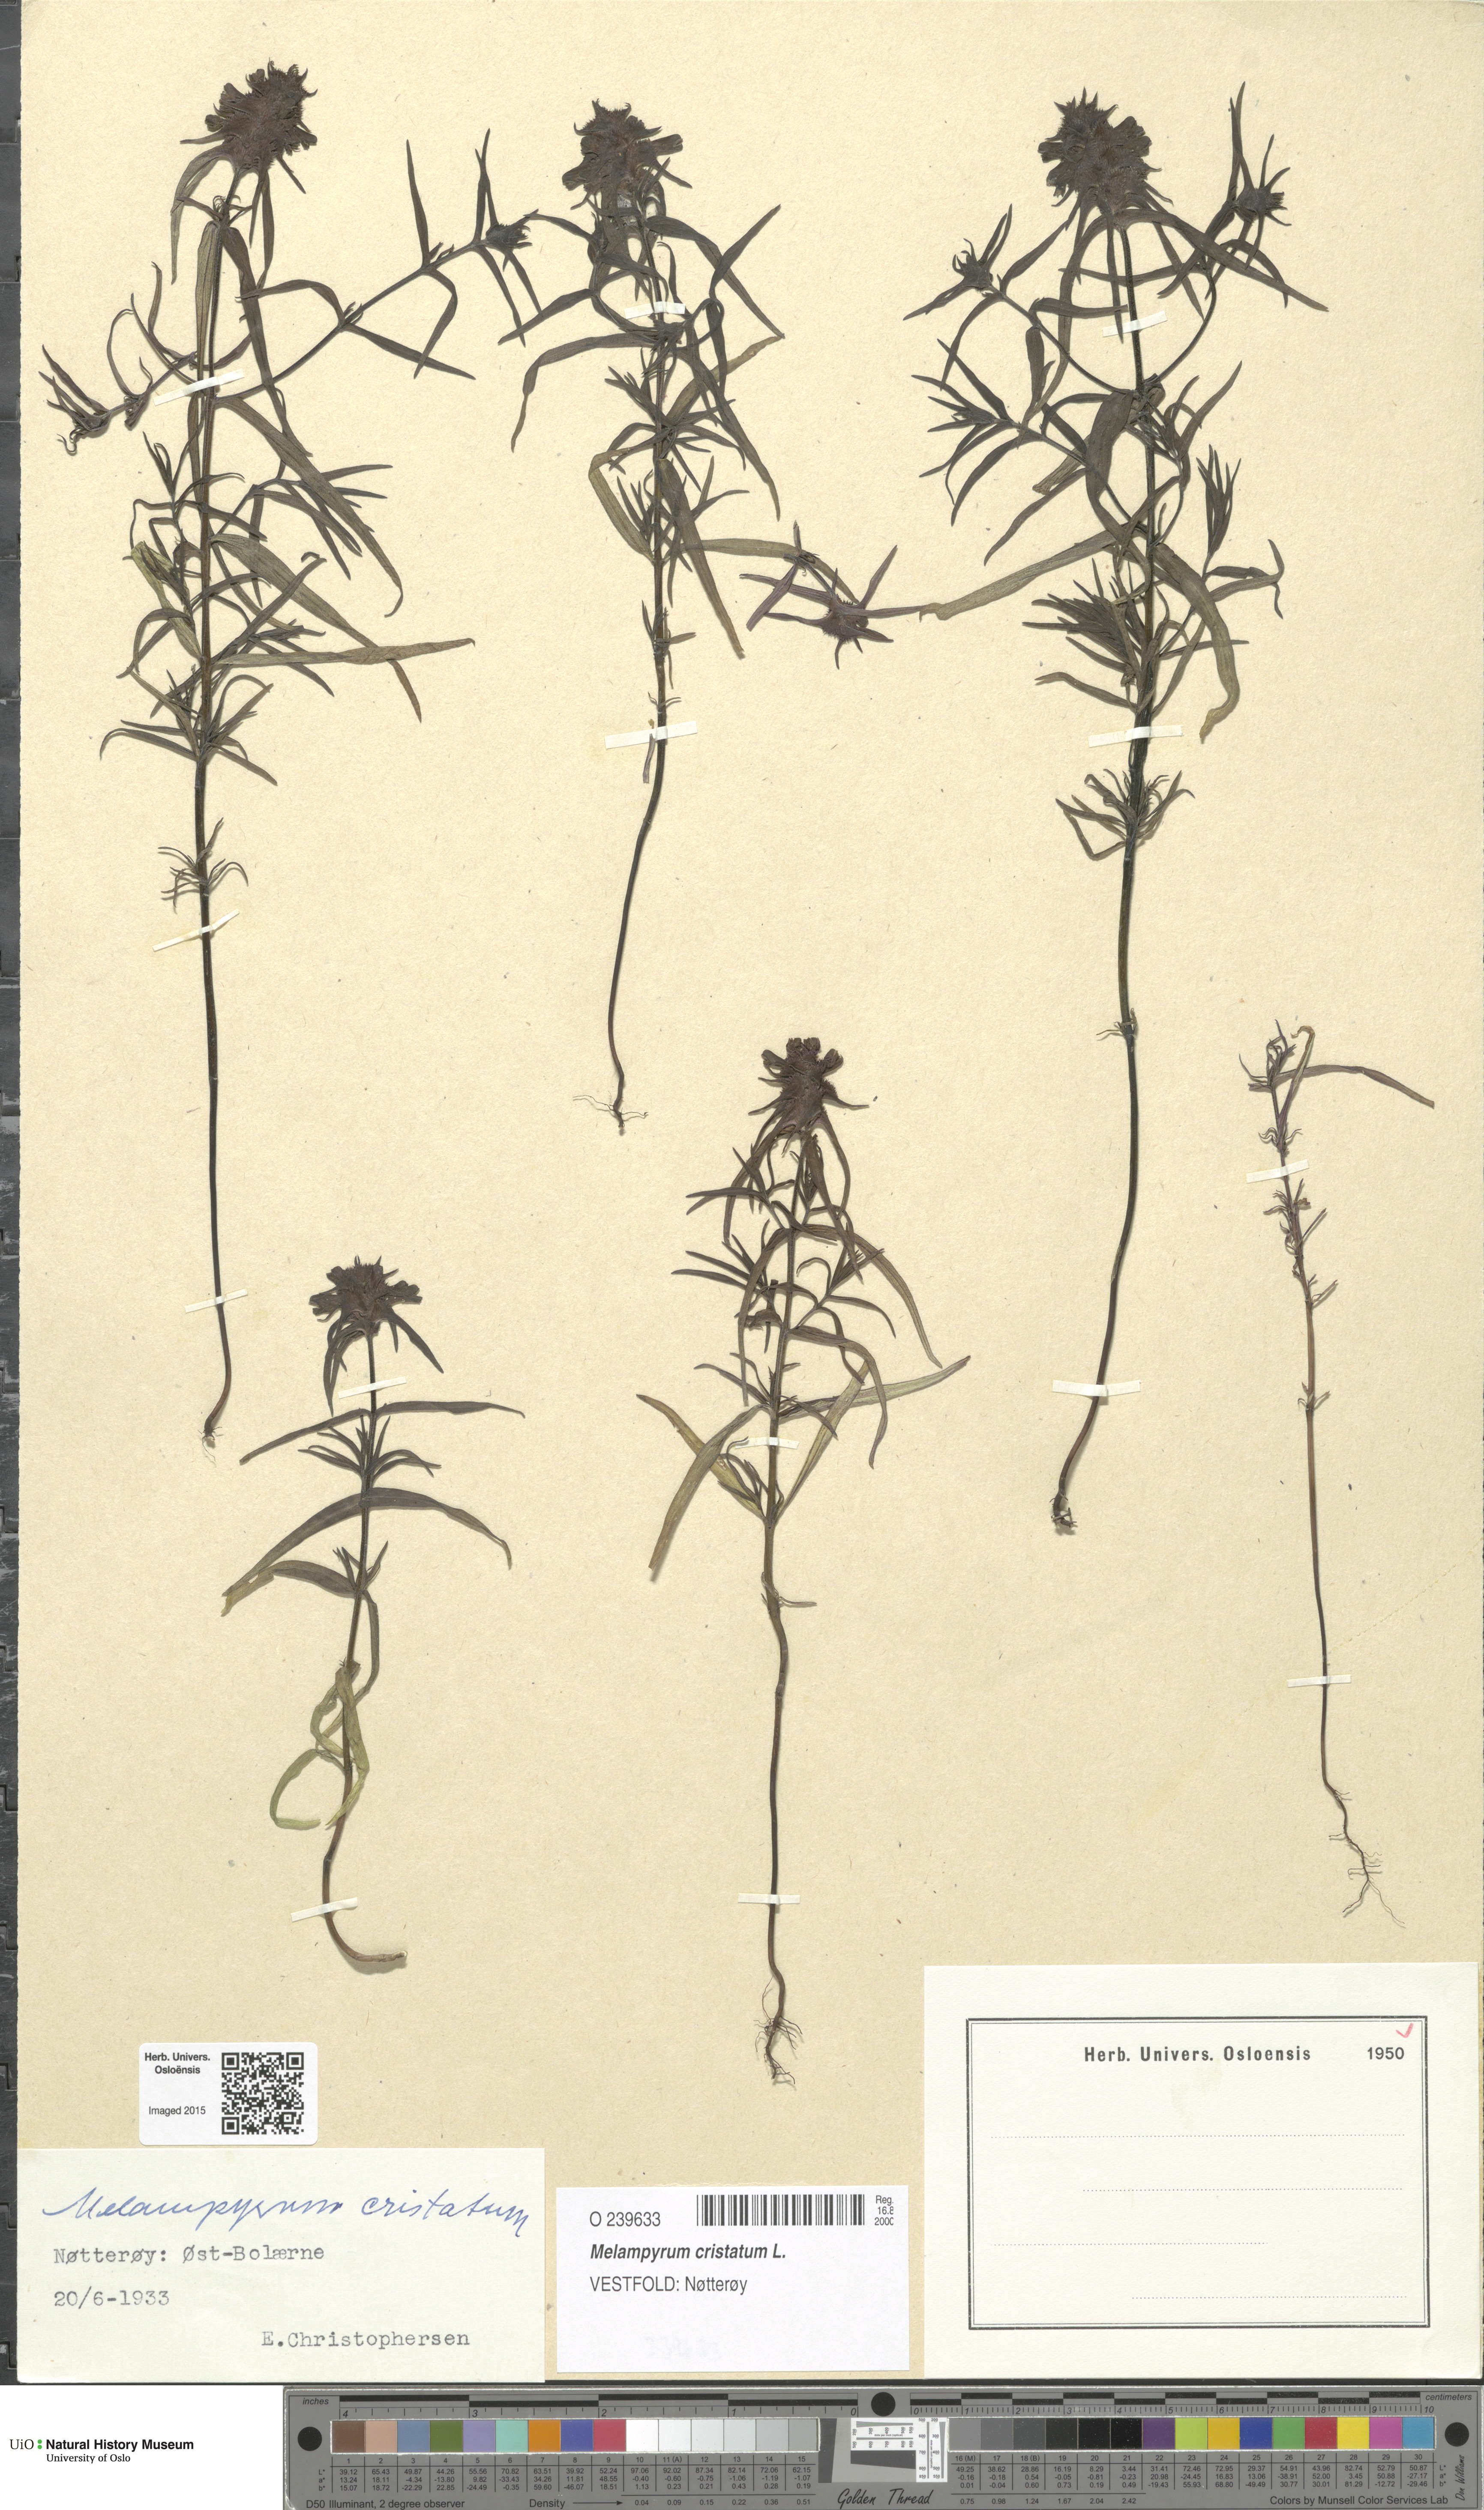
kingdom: Plantae
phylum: Tracheophyta
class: Magnoliopsida
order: Lamiales
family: Orobanchaceae
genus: Melampyrum
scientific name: Melampyrum cristatum
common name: Crested cow-wheat
